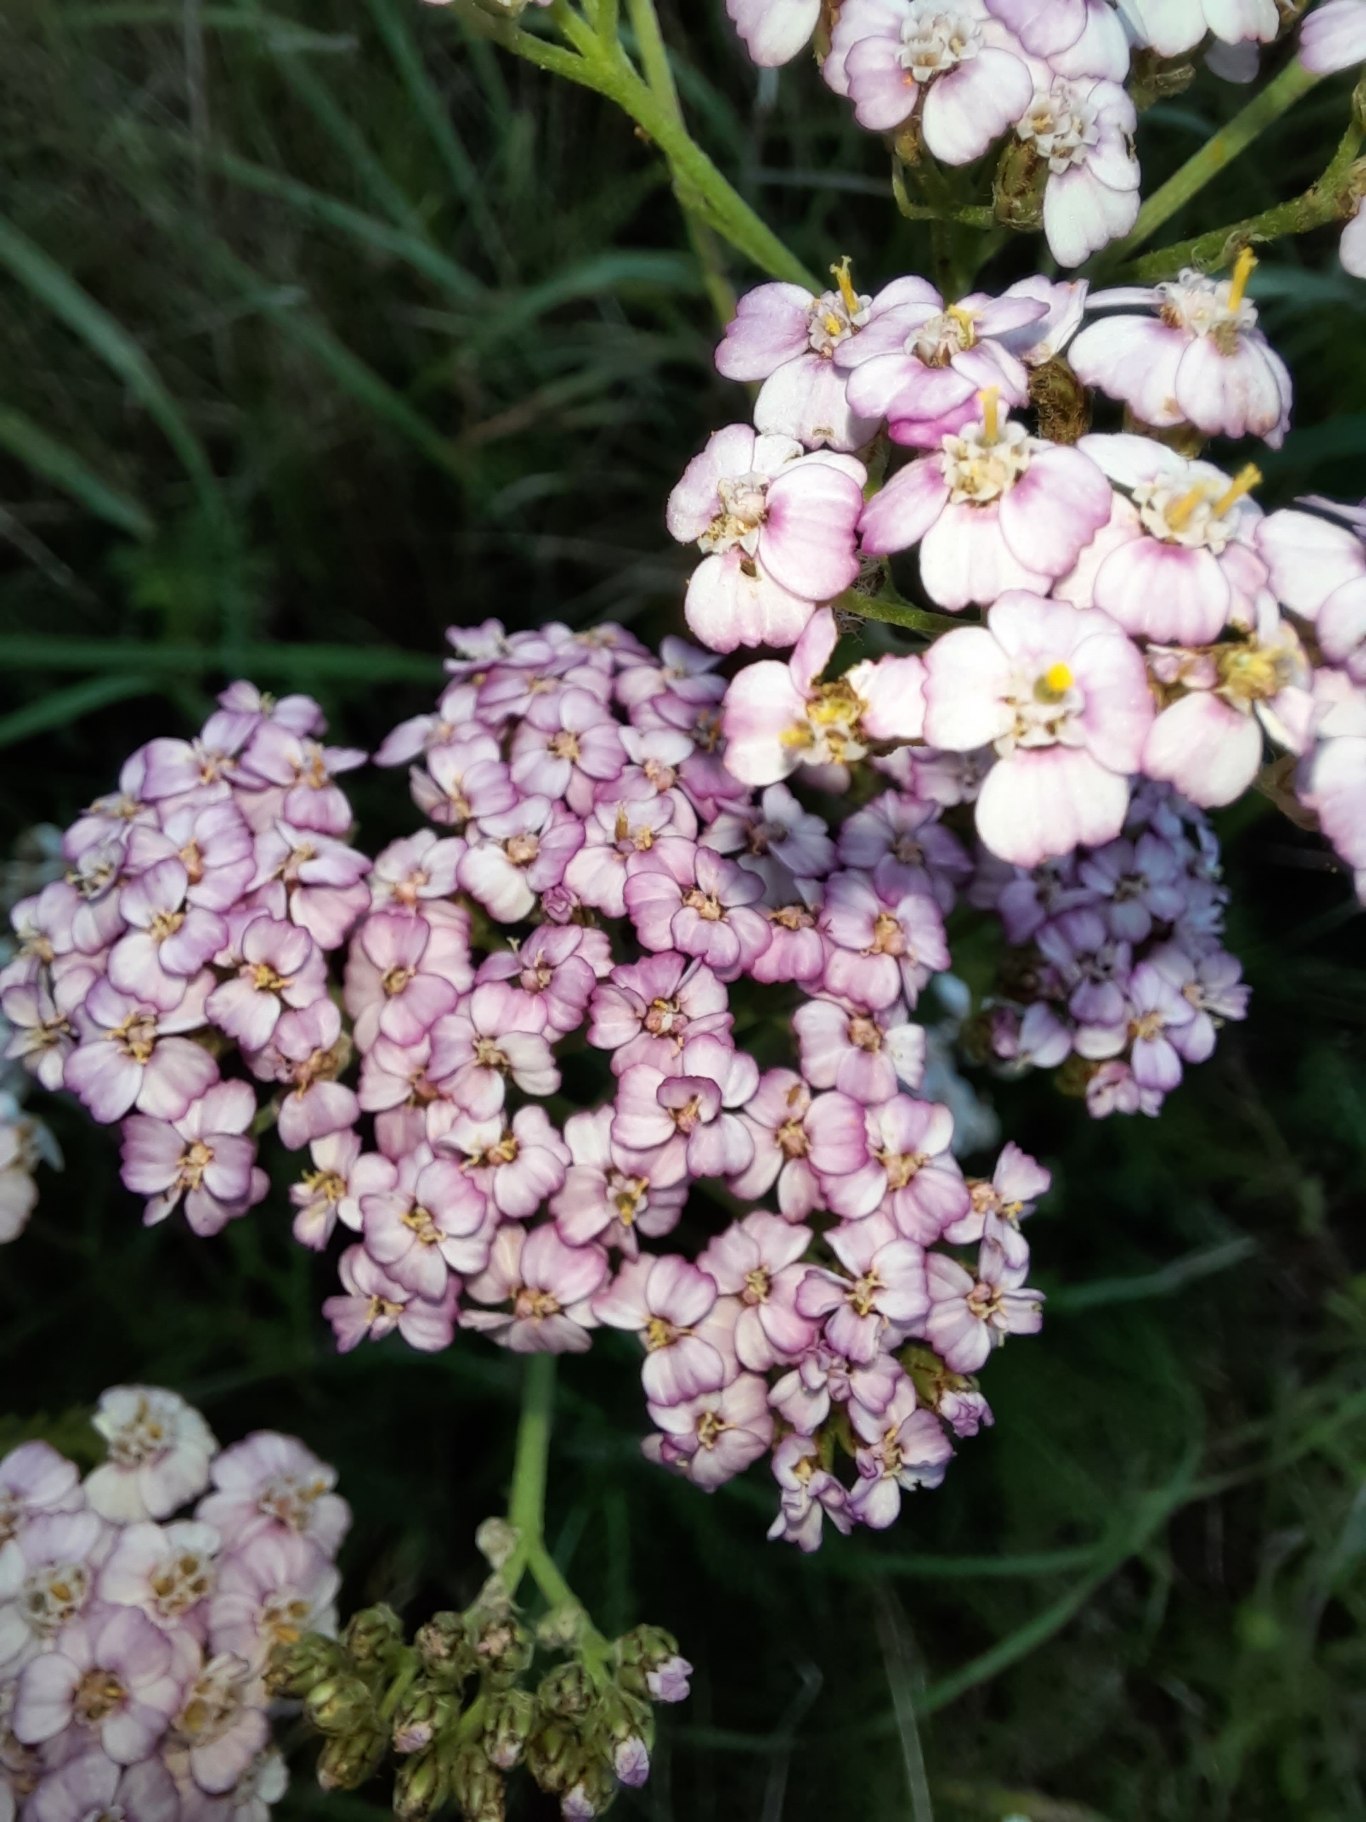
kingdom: Plantae
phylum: Tracheophyta
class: Magnoliopsida
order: Asterales
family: Asteraceae
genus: Achillea
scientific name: Achillea millefolium
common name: Almindelig røllike
